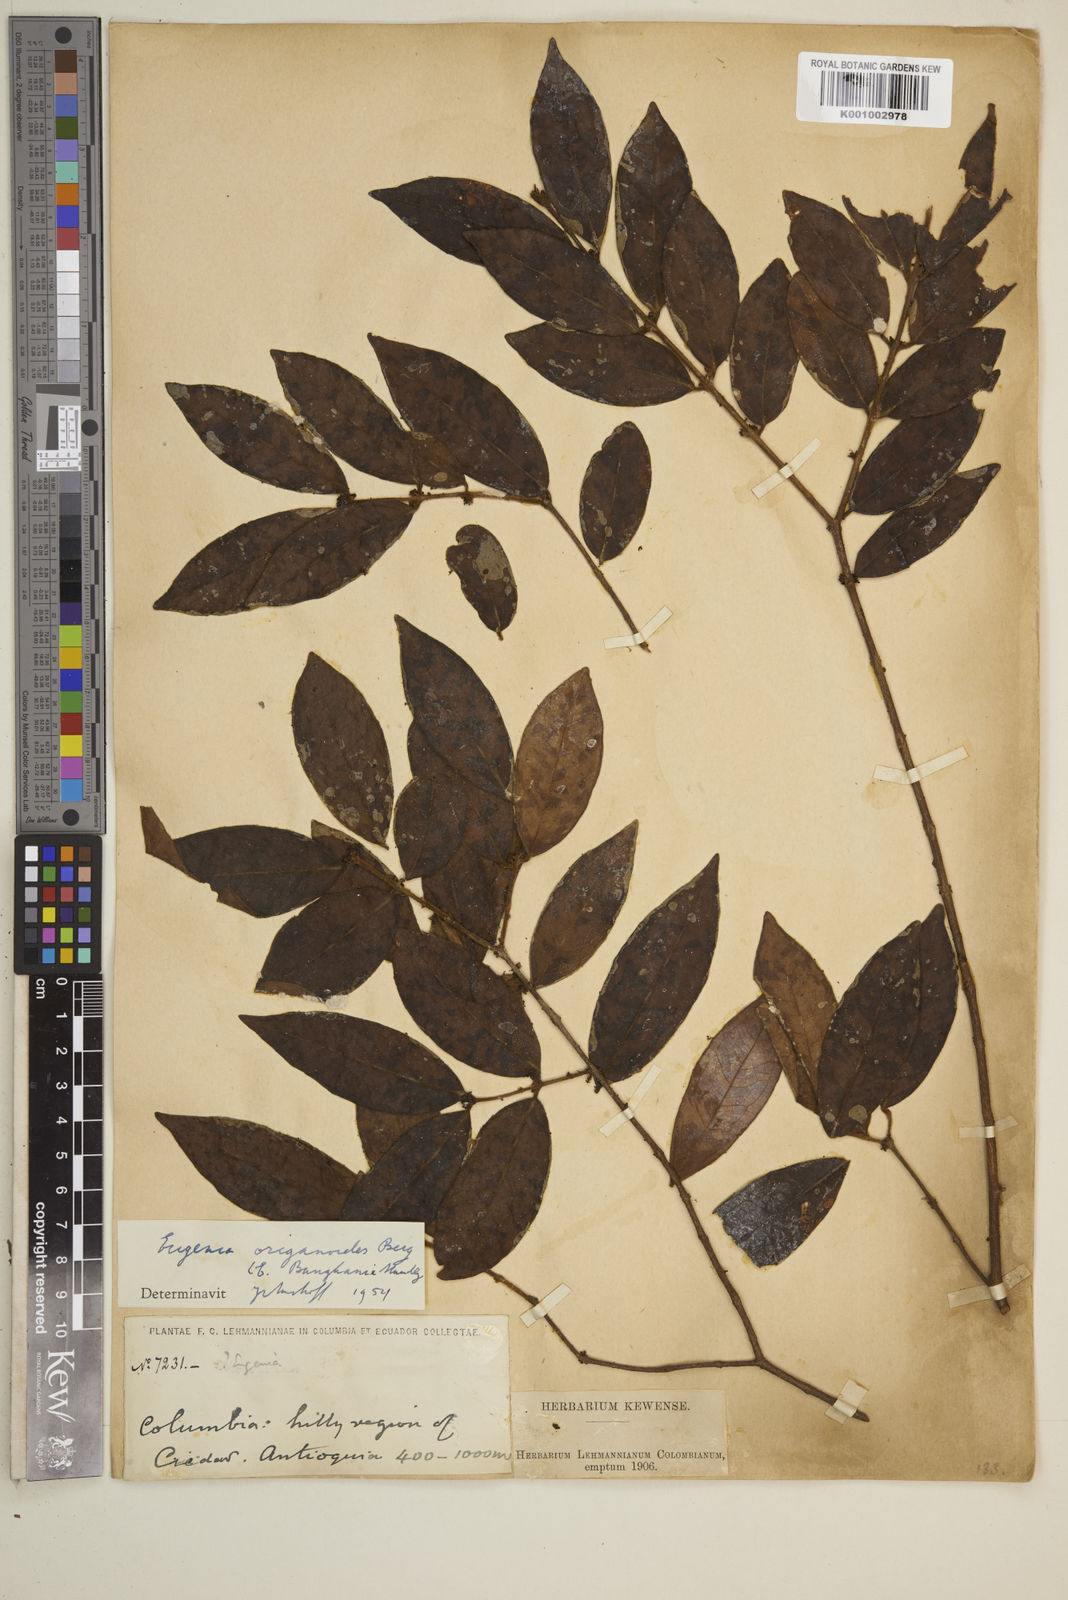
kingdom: Plantae
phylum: Tracheophyta
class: Magnoliopsida
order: Myrtales
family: Myrtaceae
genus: Eugenia
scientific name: Eugenia venezuelensis
